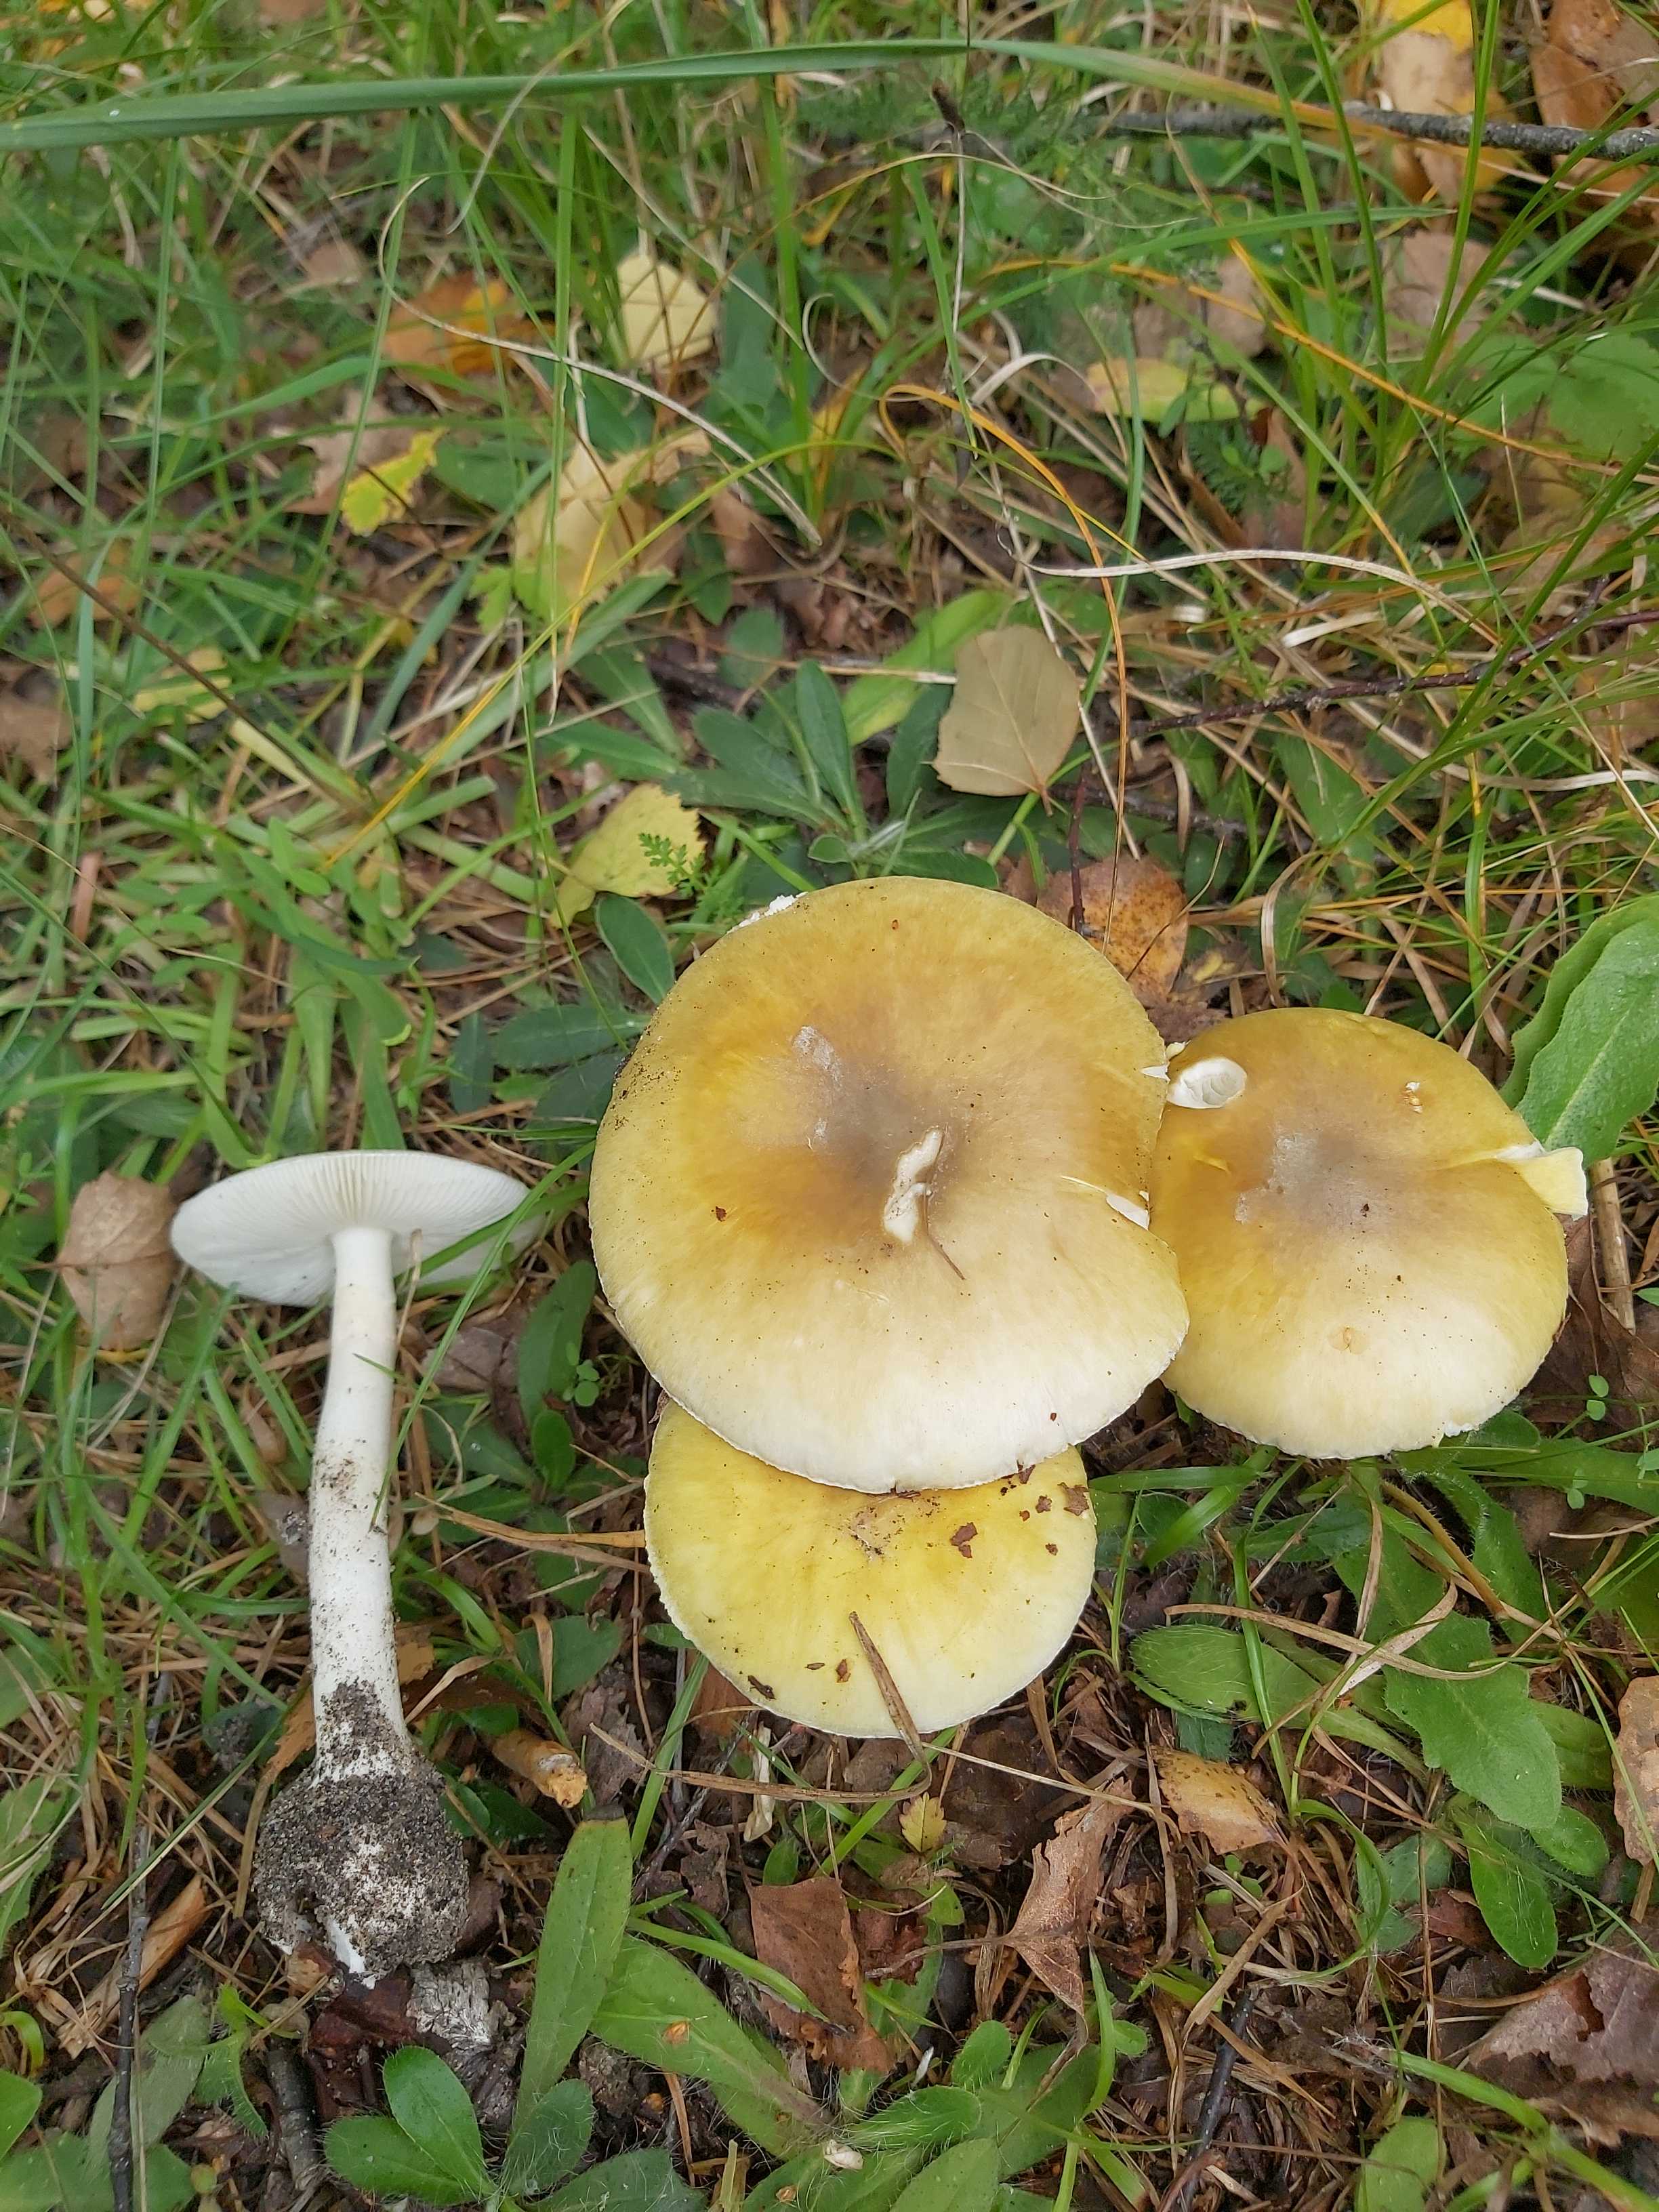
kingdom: Fungi
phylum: Basidiomycota
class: Agaricomycetes
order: Agaricales
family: Amanitaceae
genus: Amanita
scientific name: Amanita phalloides
